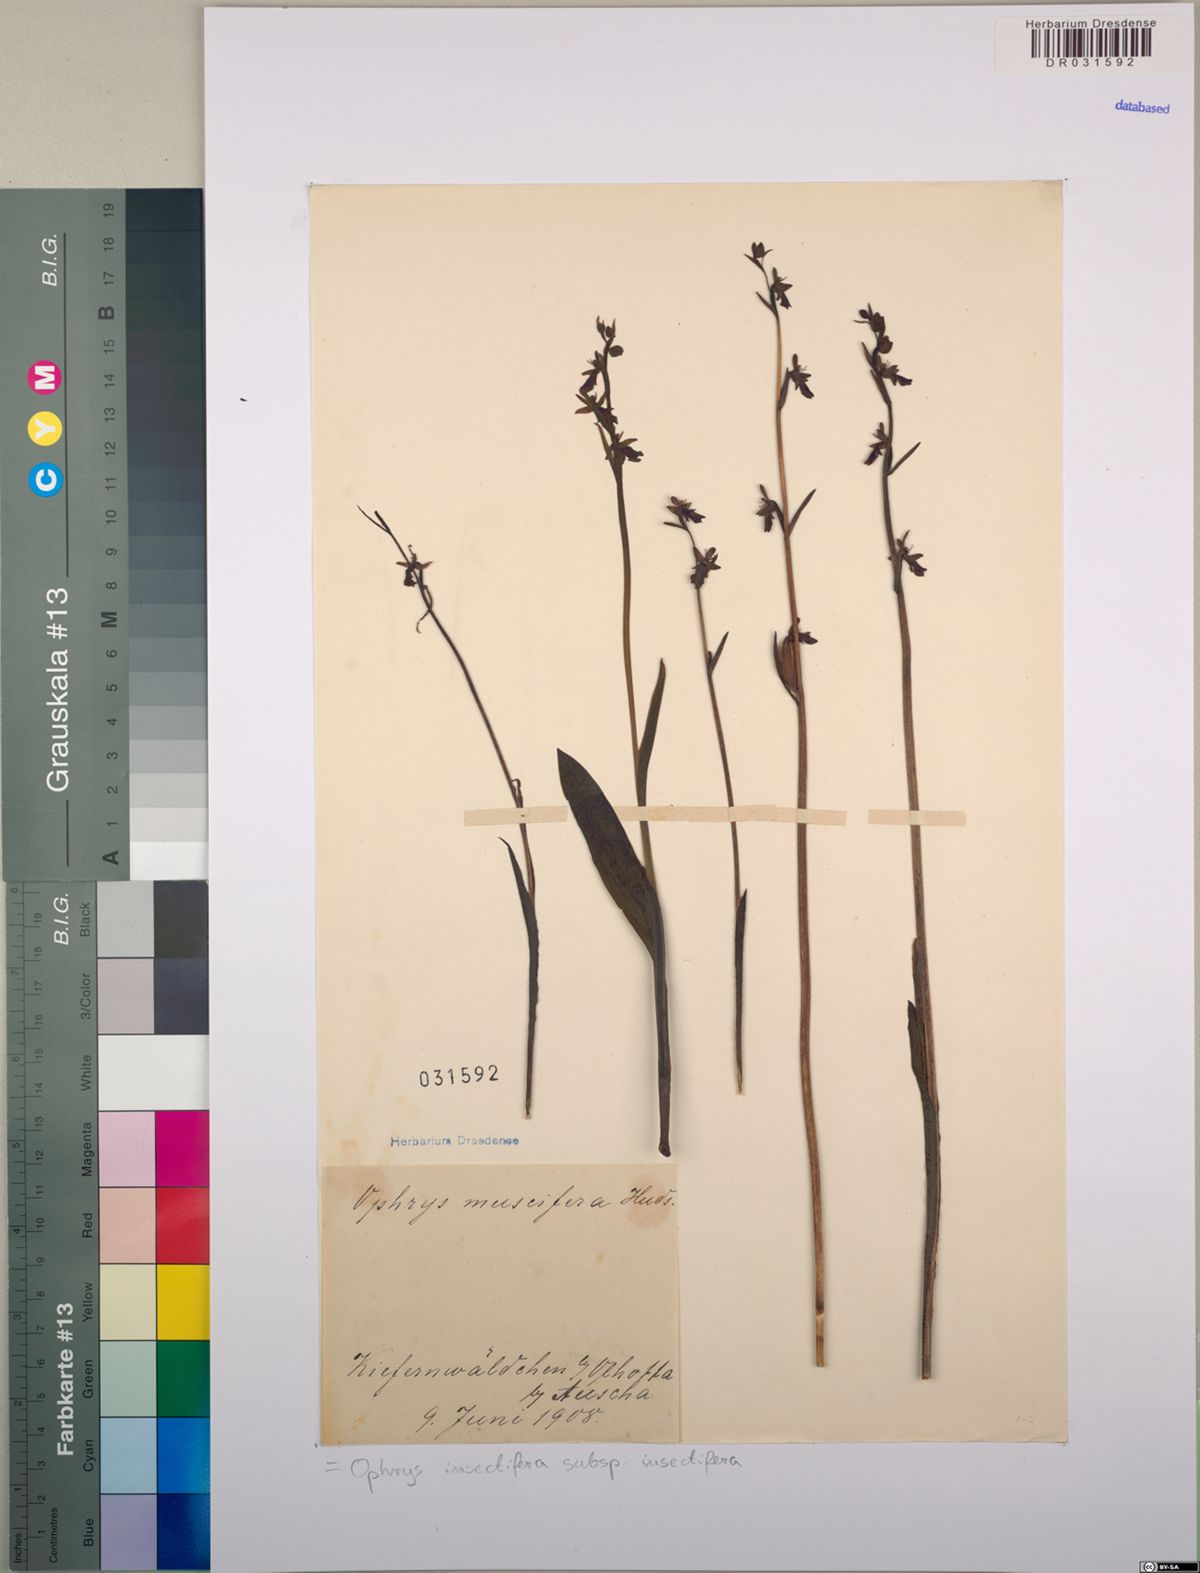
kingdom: Plantae
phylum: Tracheophyta
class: Liliopsida
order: Asparagales
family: Orchidaceae
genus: Ophrys
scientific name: Ophrys insectifera
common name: Fly orchid
